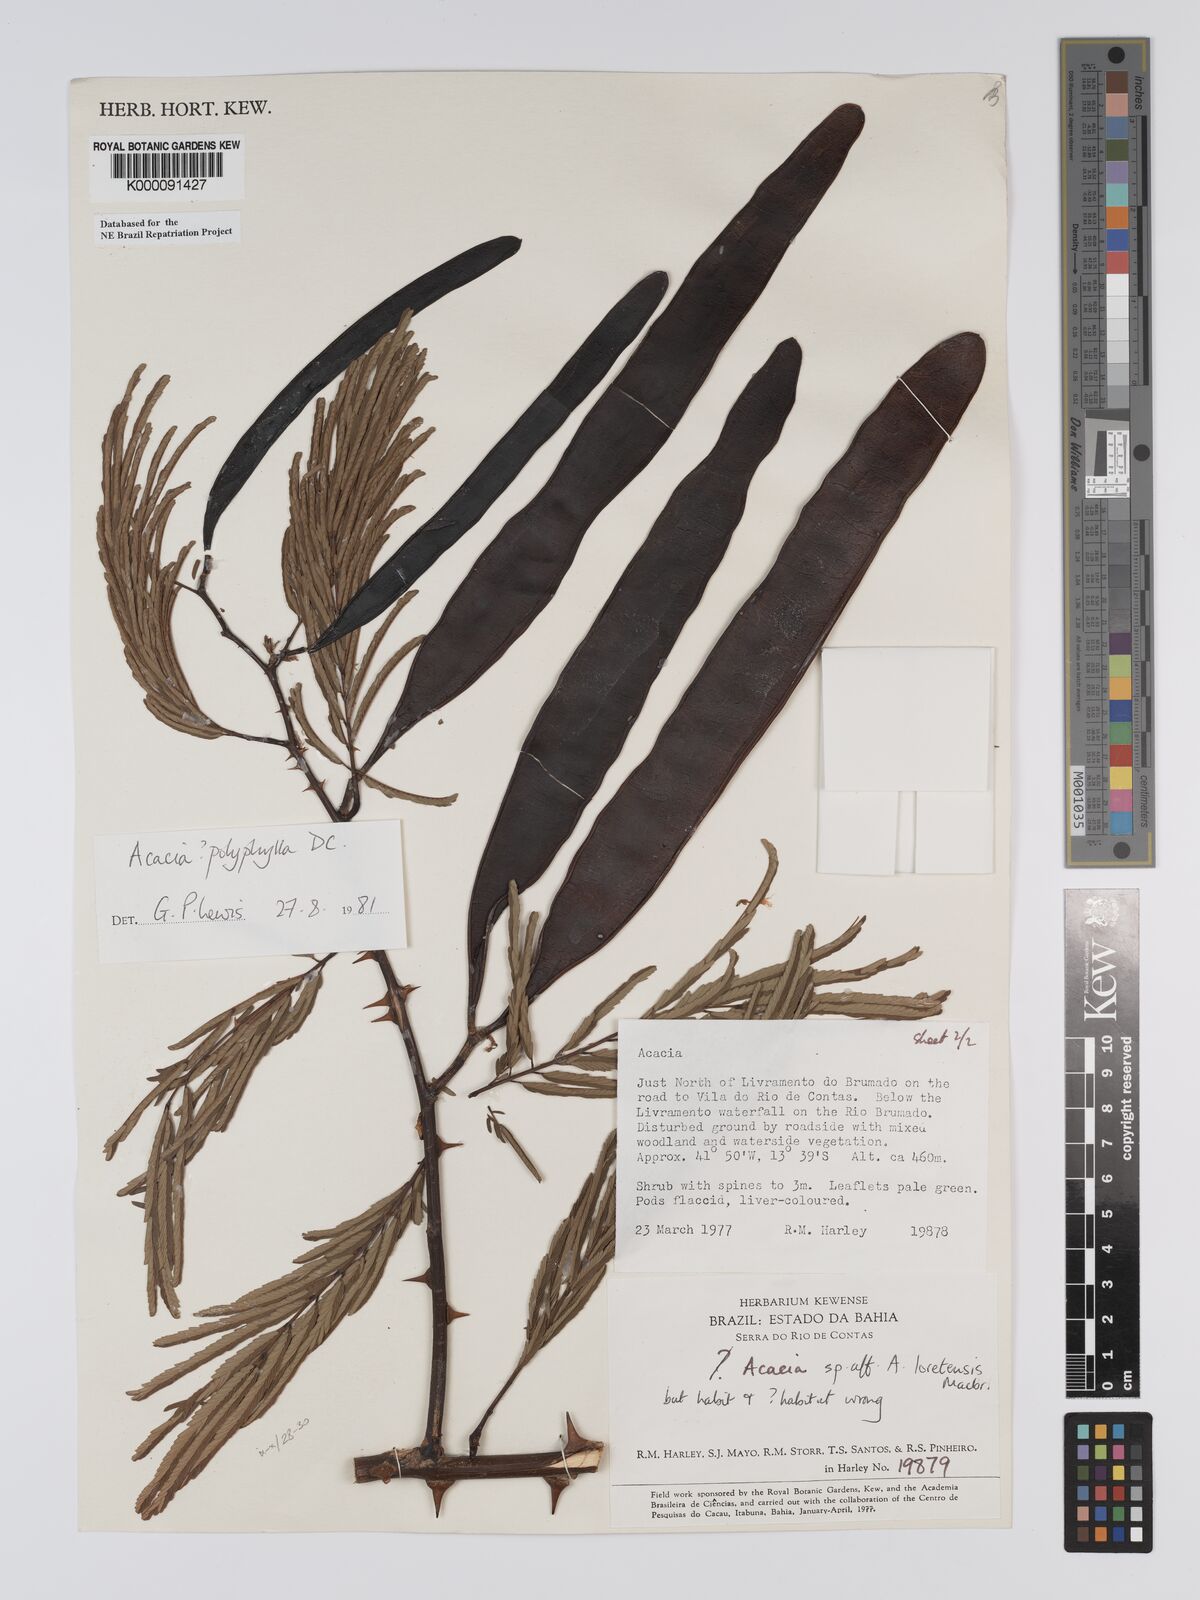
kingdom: Plantae
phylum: Tracheophyta
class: Magnoliopsida
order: Fabales
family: Fabaceae
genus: Senegalia
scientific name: Senegalia polyphylla
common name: White-tamarind
